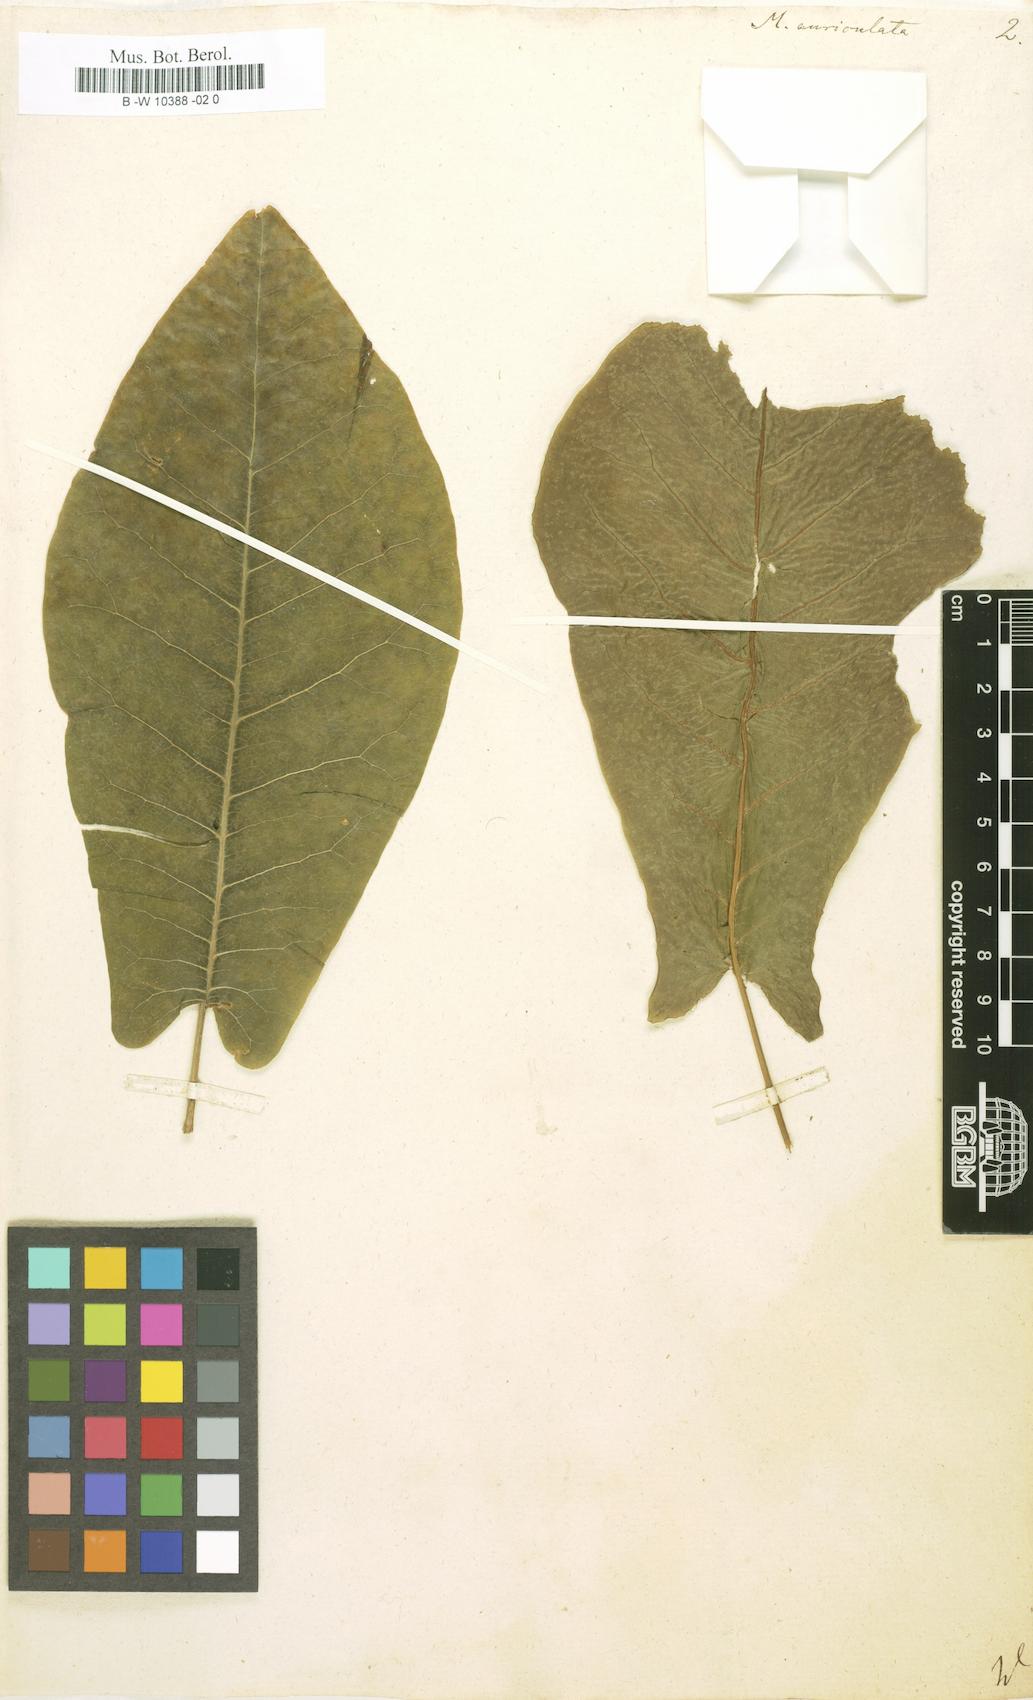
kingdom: Plantae
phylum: Tracheophyta
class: Magnoliopsida
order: Magnoliales
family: Magnoliaceae
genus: Magnolia
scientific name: Magnolia fraseri
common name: Fraser's magnolia
